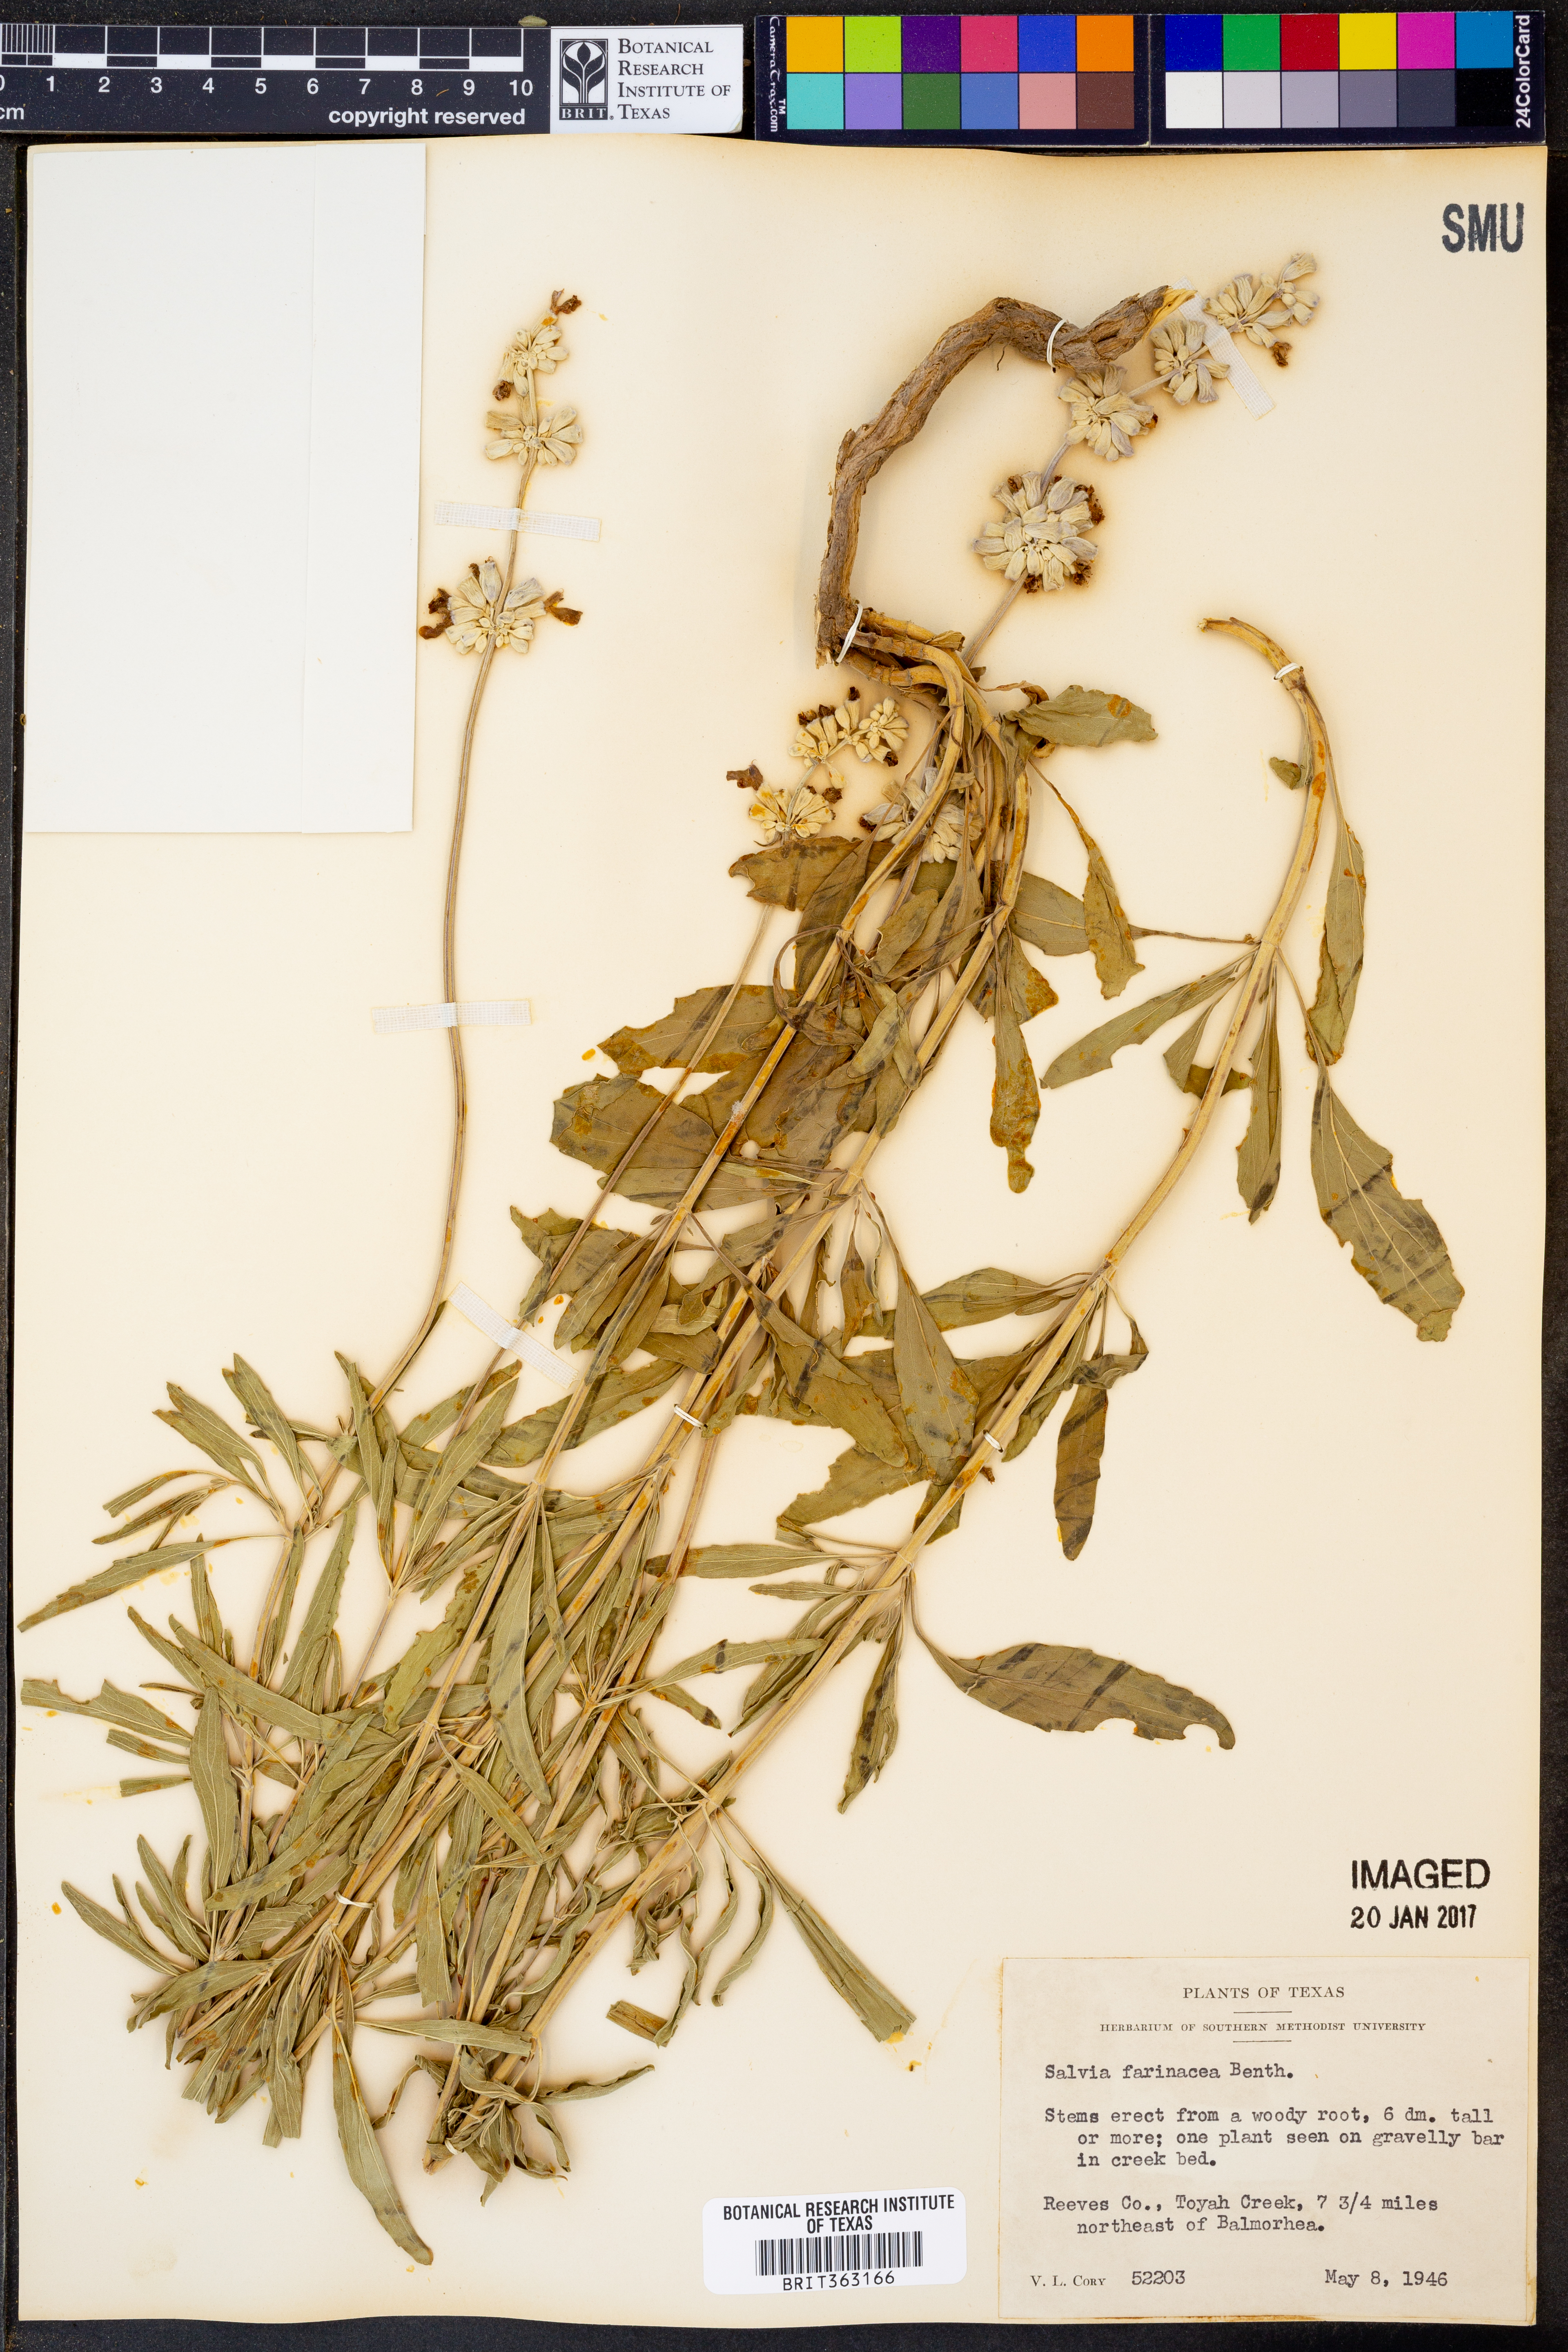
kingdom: Plantae
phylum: Tracheophyta
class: Magnoliopsida
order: Lamiales
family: Lamiaceae
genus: Salvia
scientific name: Salvia farinacea
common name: Mealy sage
